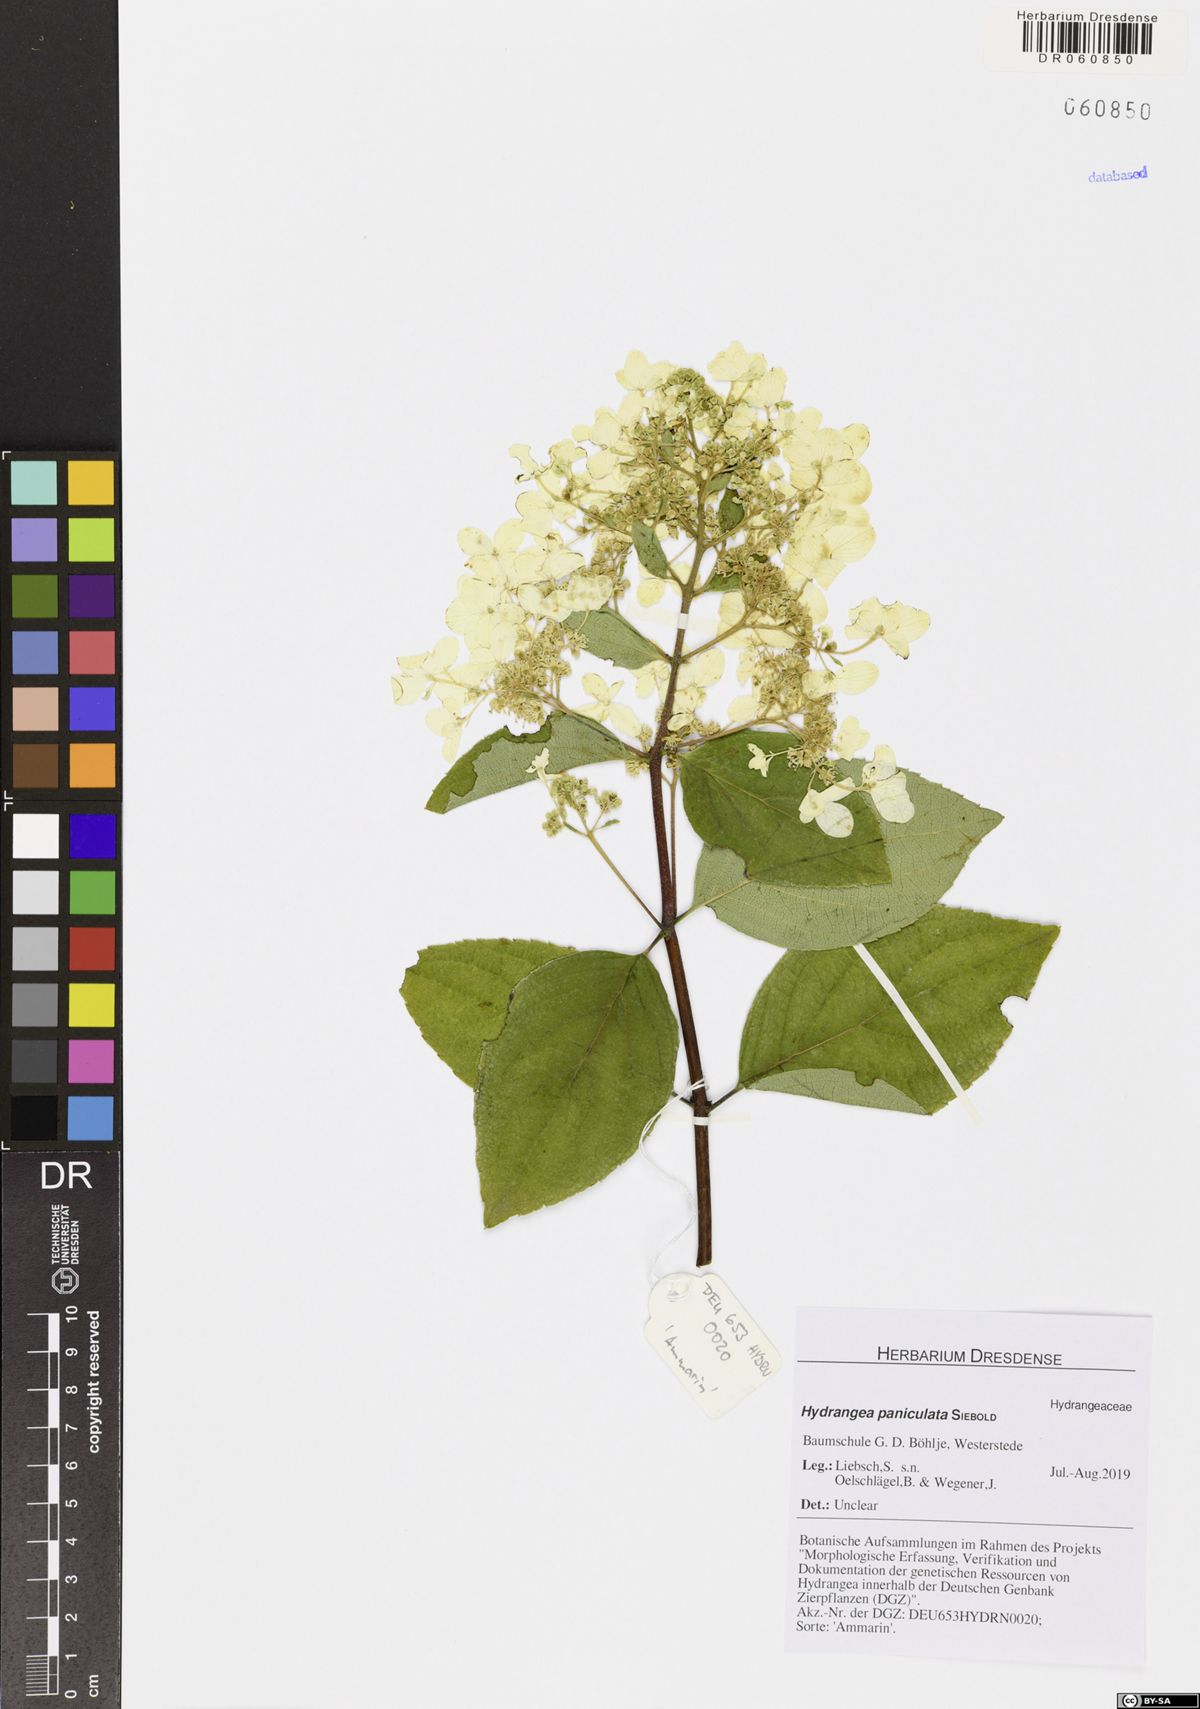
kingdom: Plantae
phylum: Tracheophyta
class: Magnoliopsida
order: Cornales
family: Hydrangeaceae
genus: Hydrangea
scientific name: Hydrangea paniculata
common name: Panicled hydrangea
